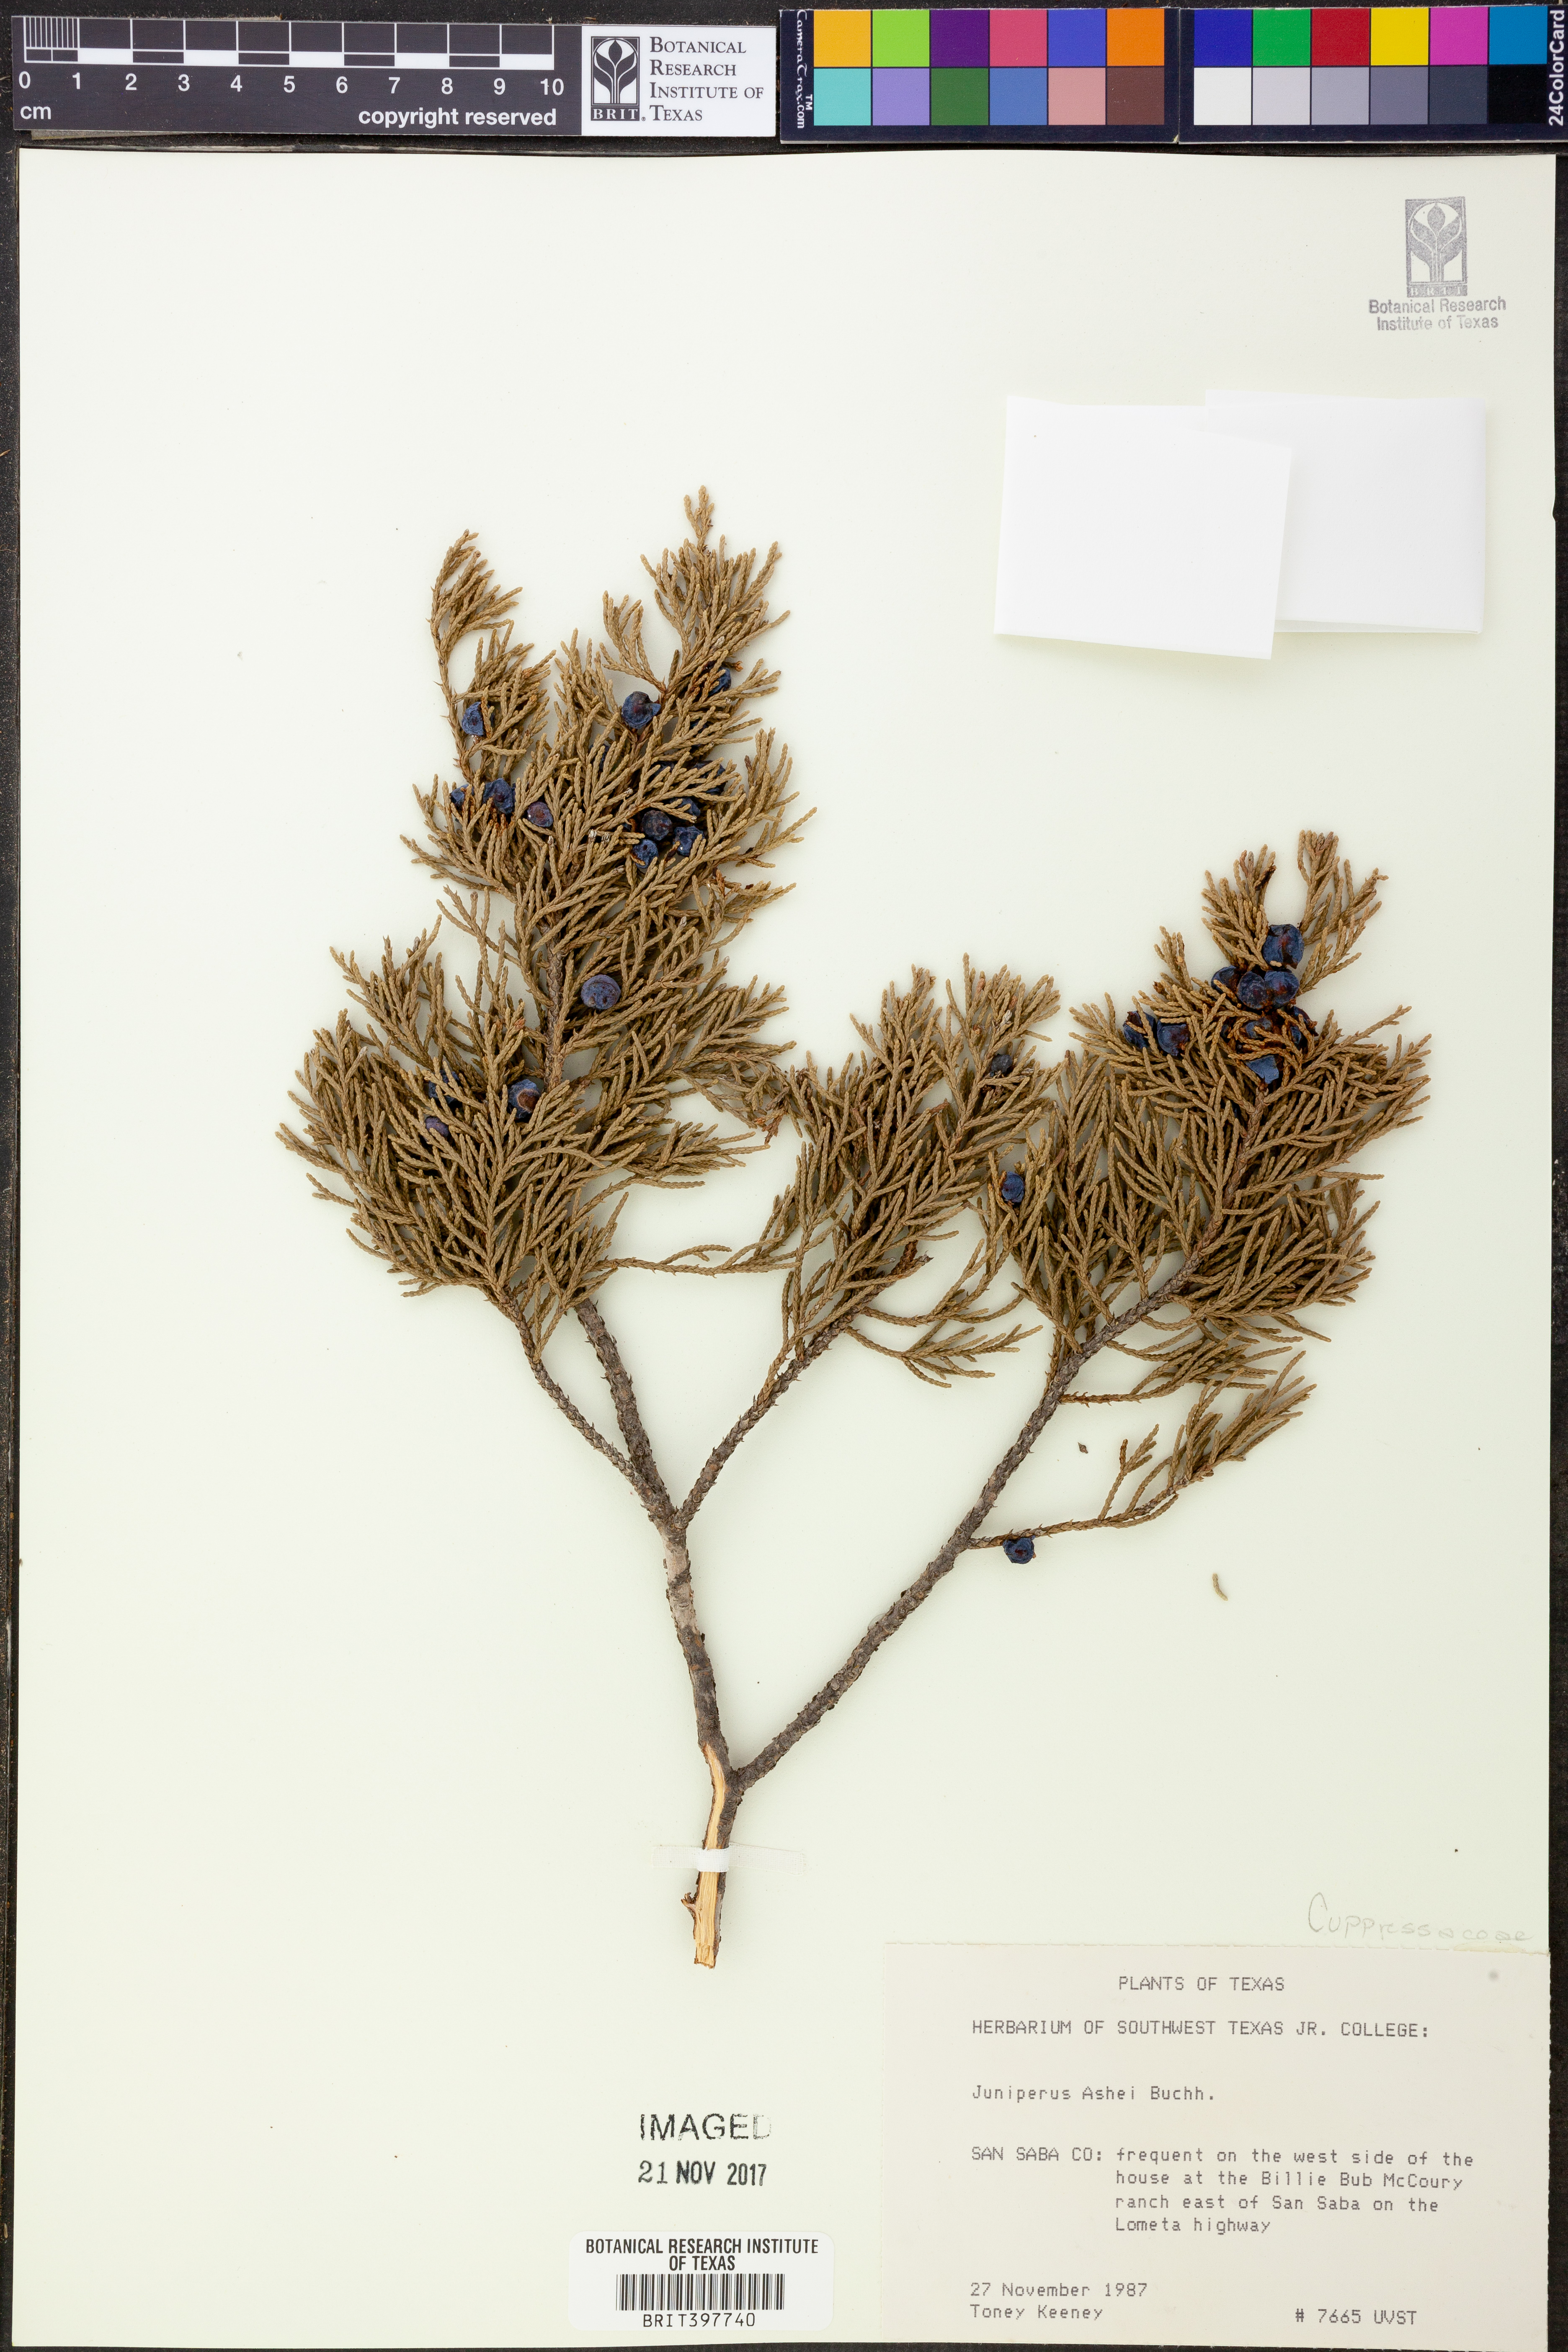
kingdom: Plantae
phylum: Tracheophyta
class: Pinopsida
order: Pinales
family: Cupressaceae
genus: Juniperus
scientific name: Juniperus ashei
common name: Mexican juniper
